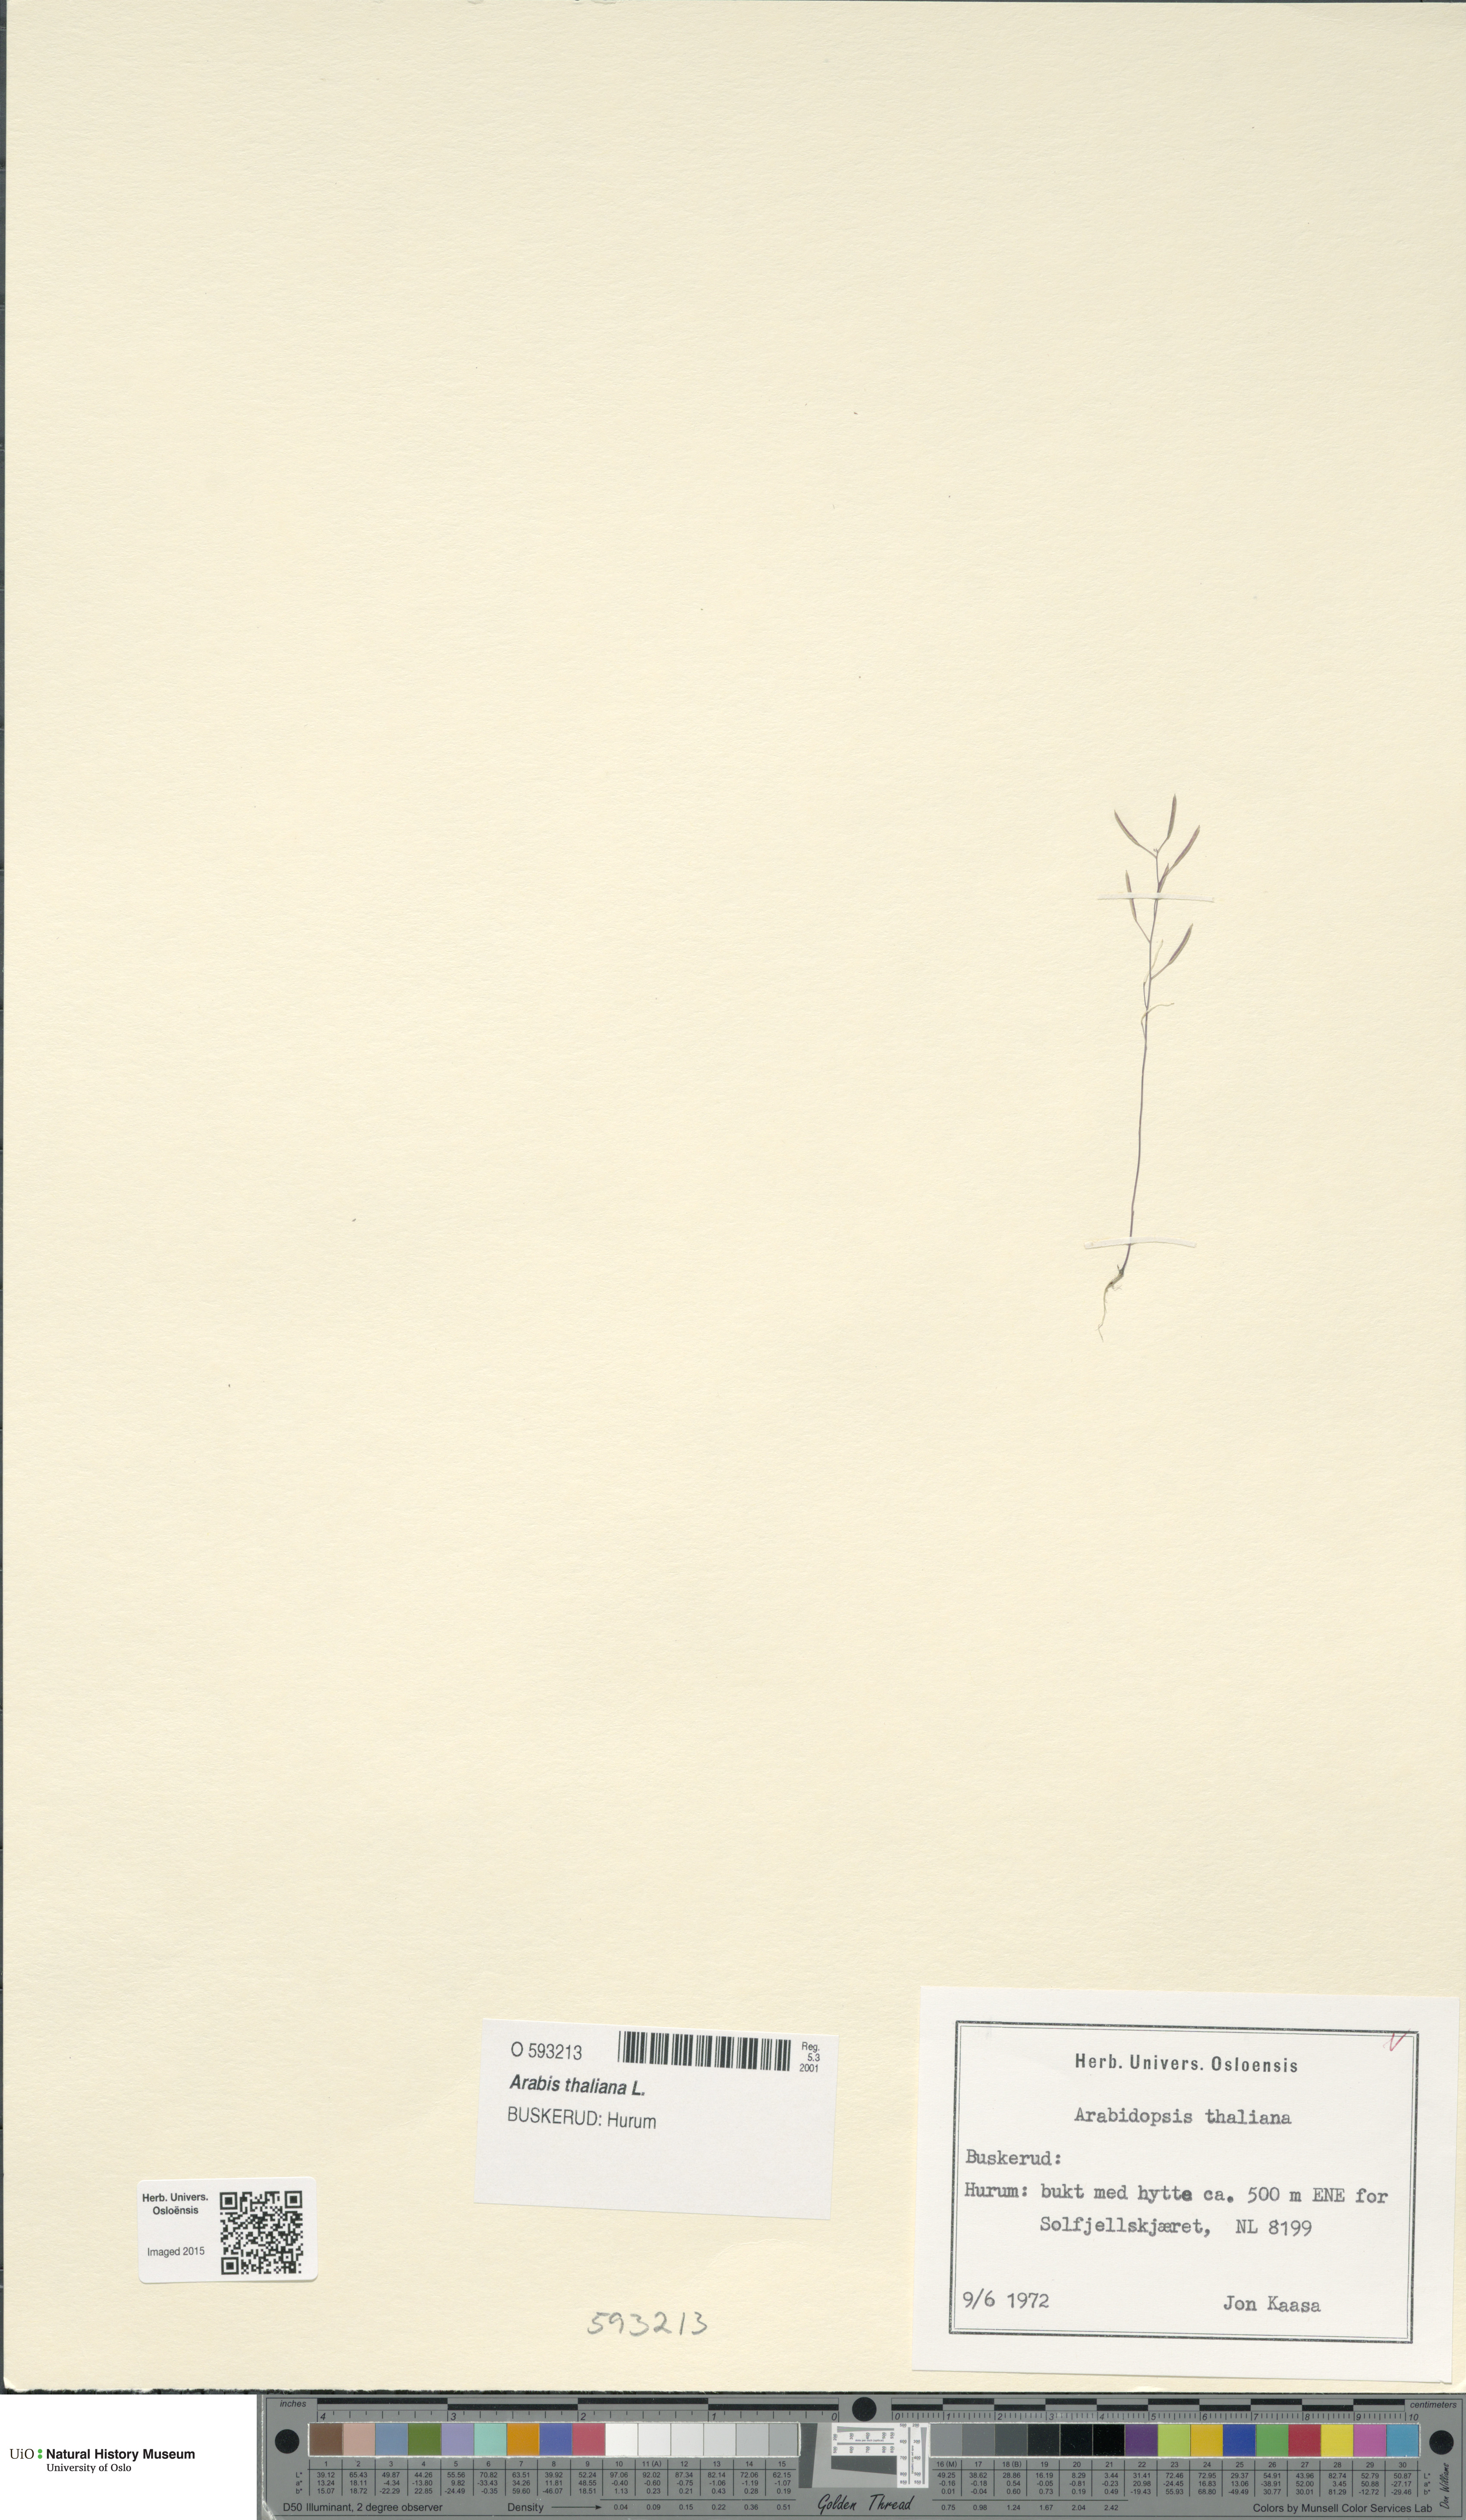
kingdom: Plantae
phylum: Tracheophyta
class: Magnoliopsida
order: Brassicales
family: Brassicaceae
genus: Arabidopsis
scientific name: Arabidopsis thaliana
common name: Thale cress
